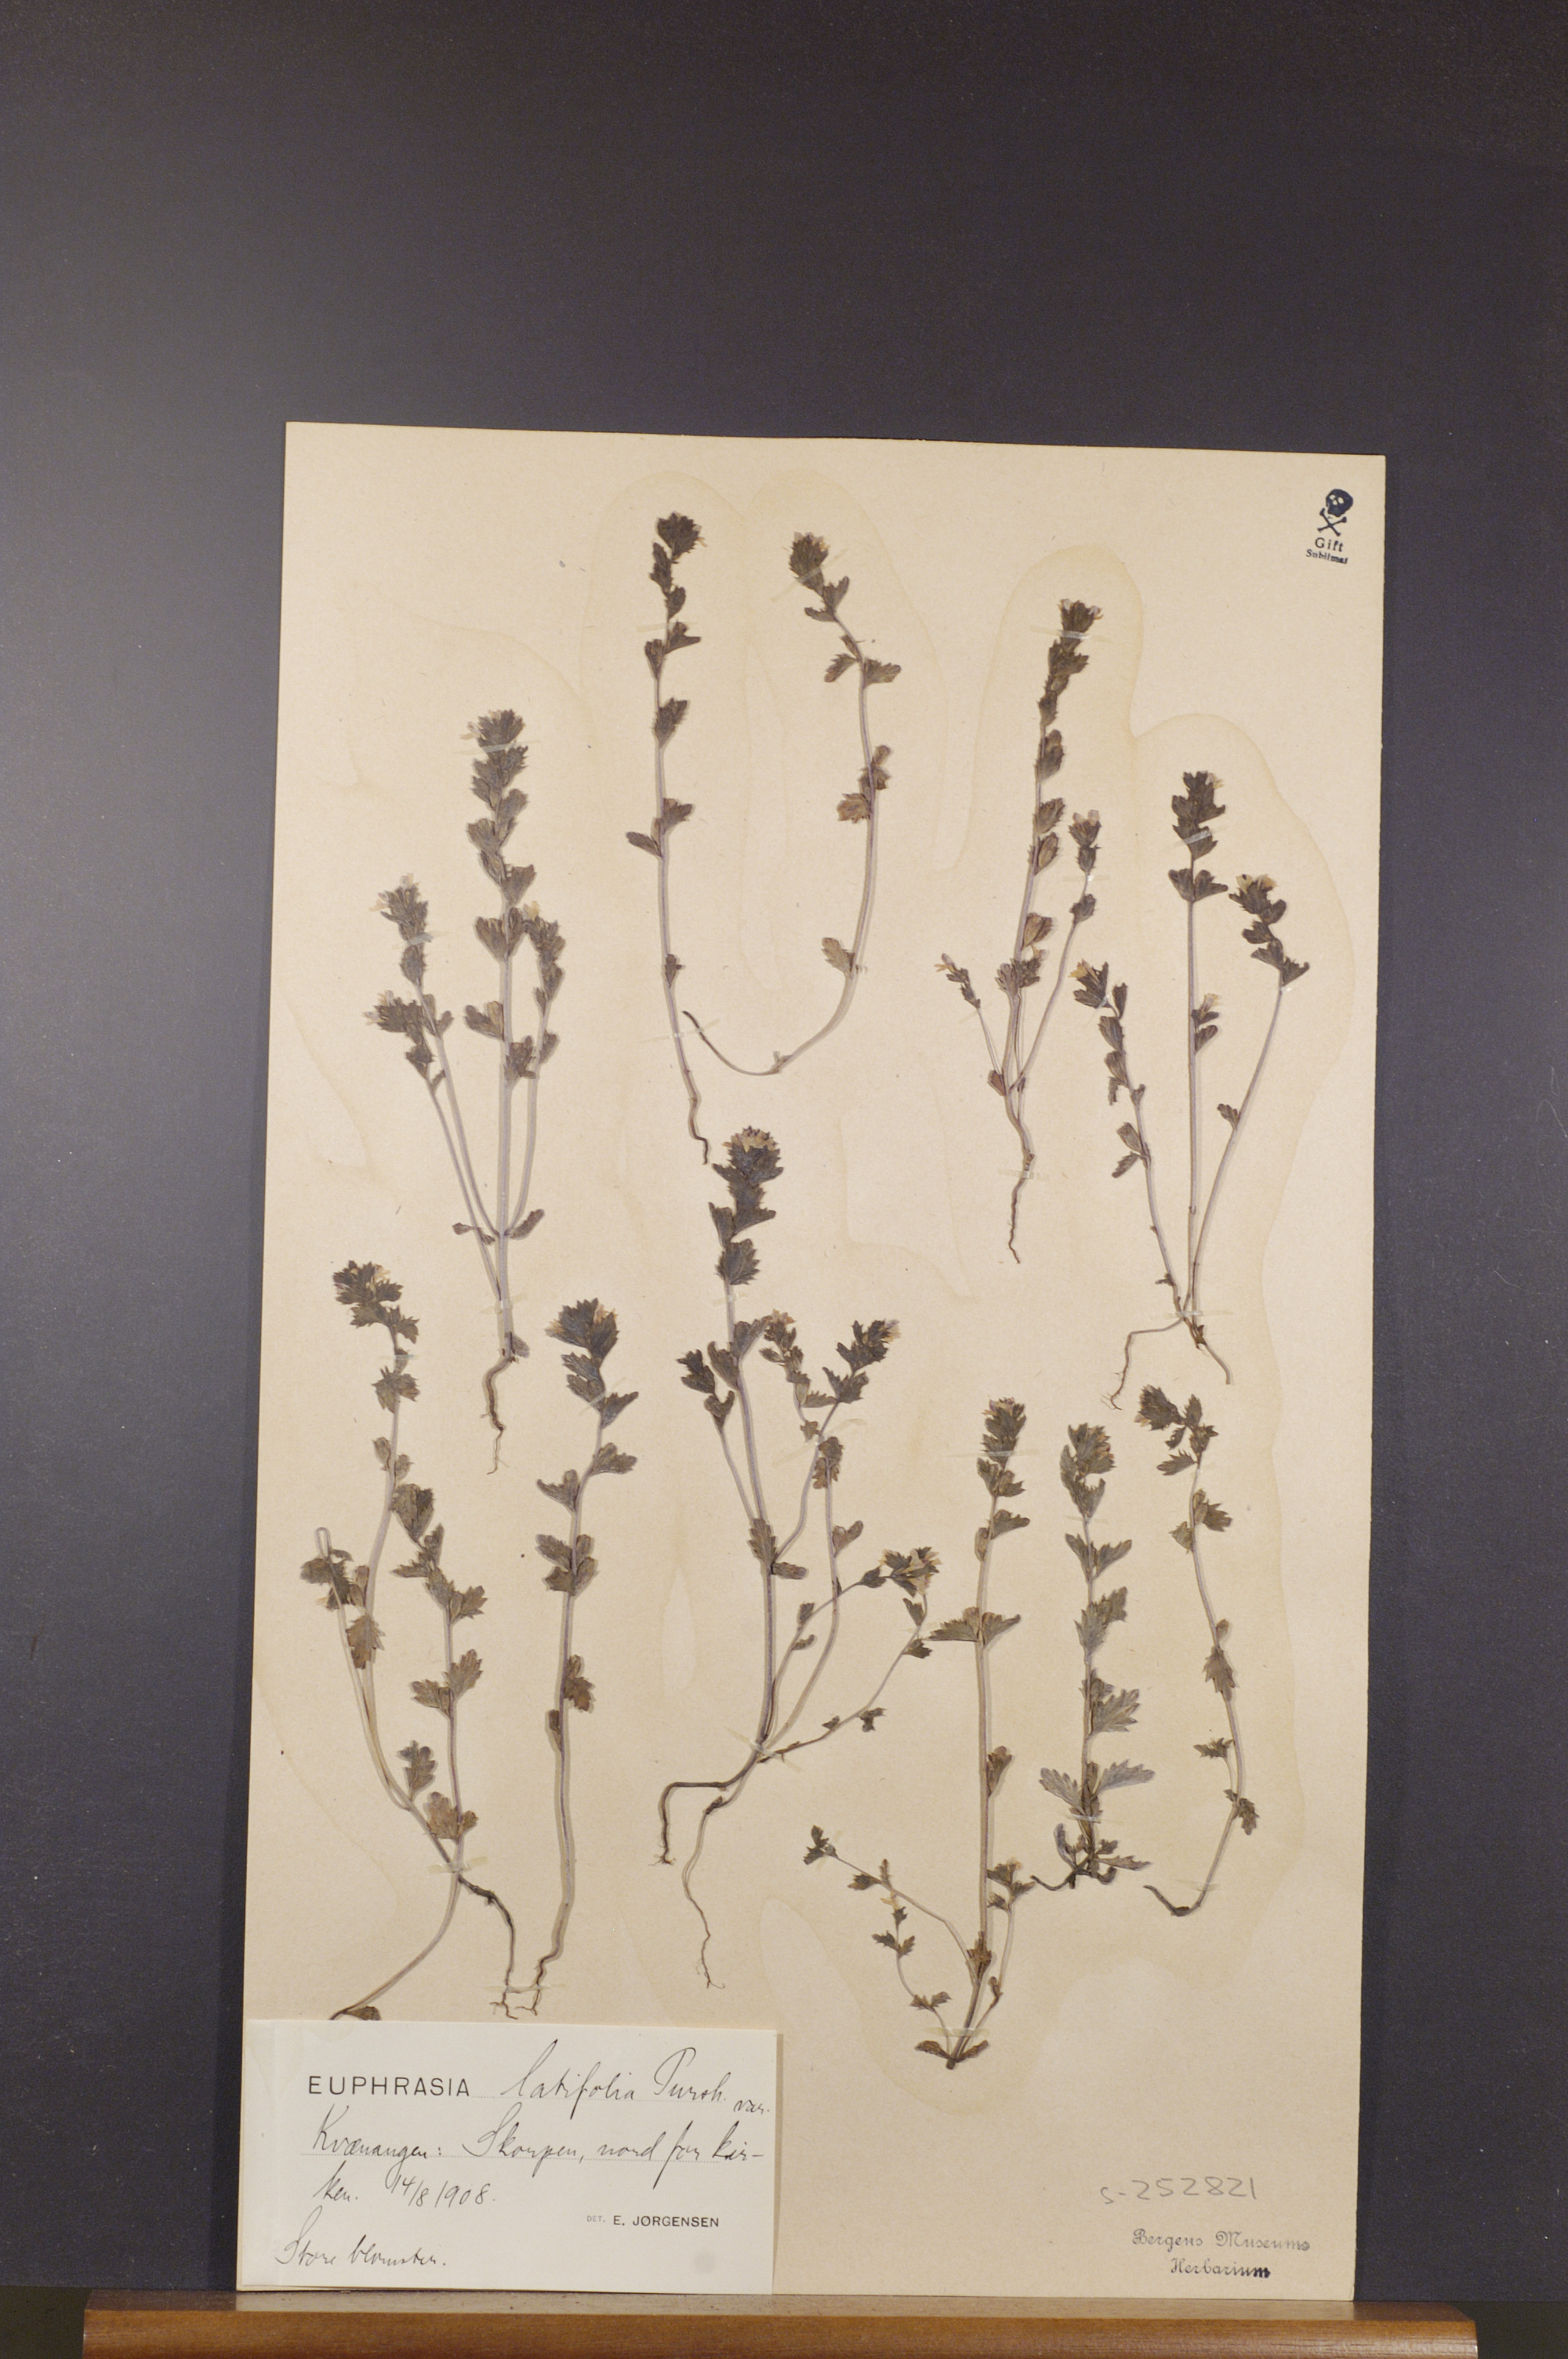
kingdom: Plantae
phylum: Tracheophyta
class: Magnoliopsida
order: Lamiales
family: Orobanchaceae
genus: Euphrasia
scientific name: Euphrasia wettsteinii
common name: Wettstein's eyebright
